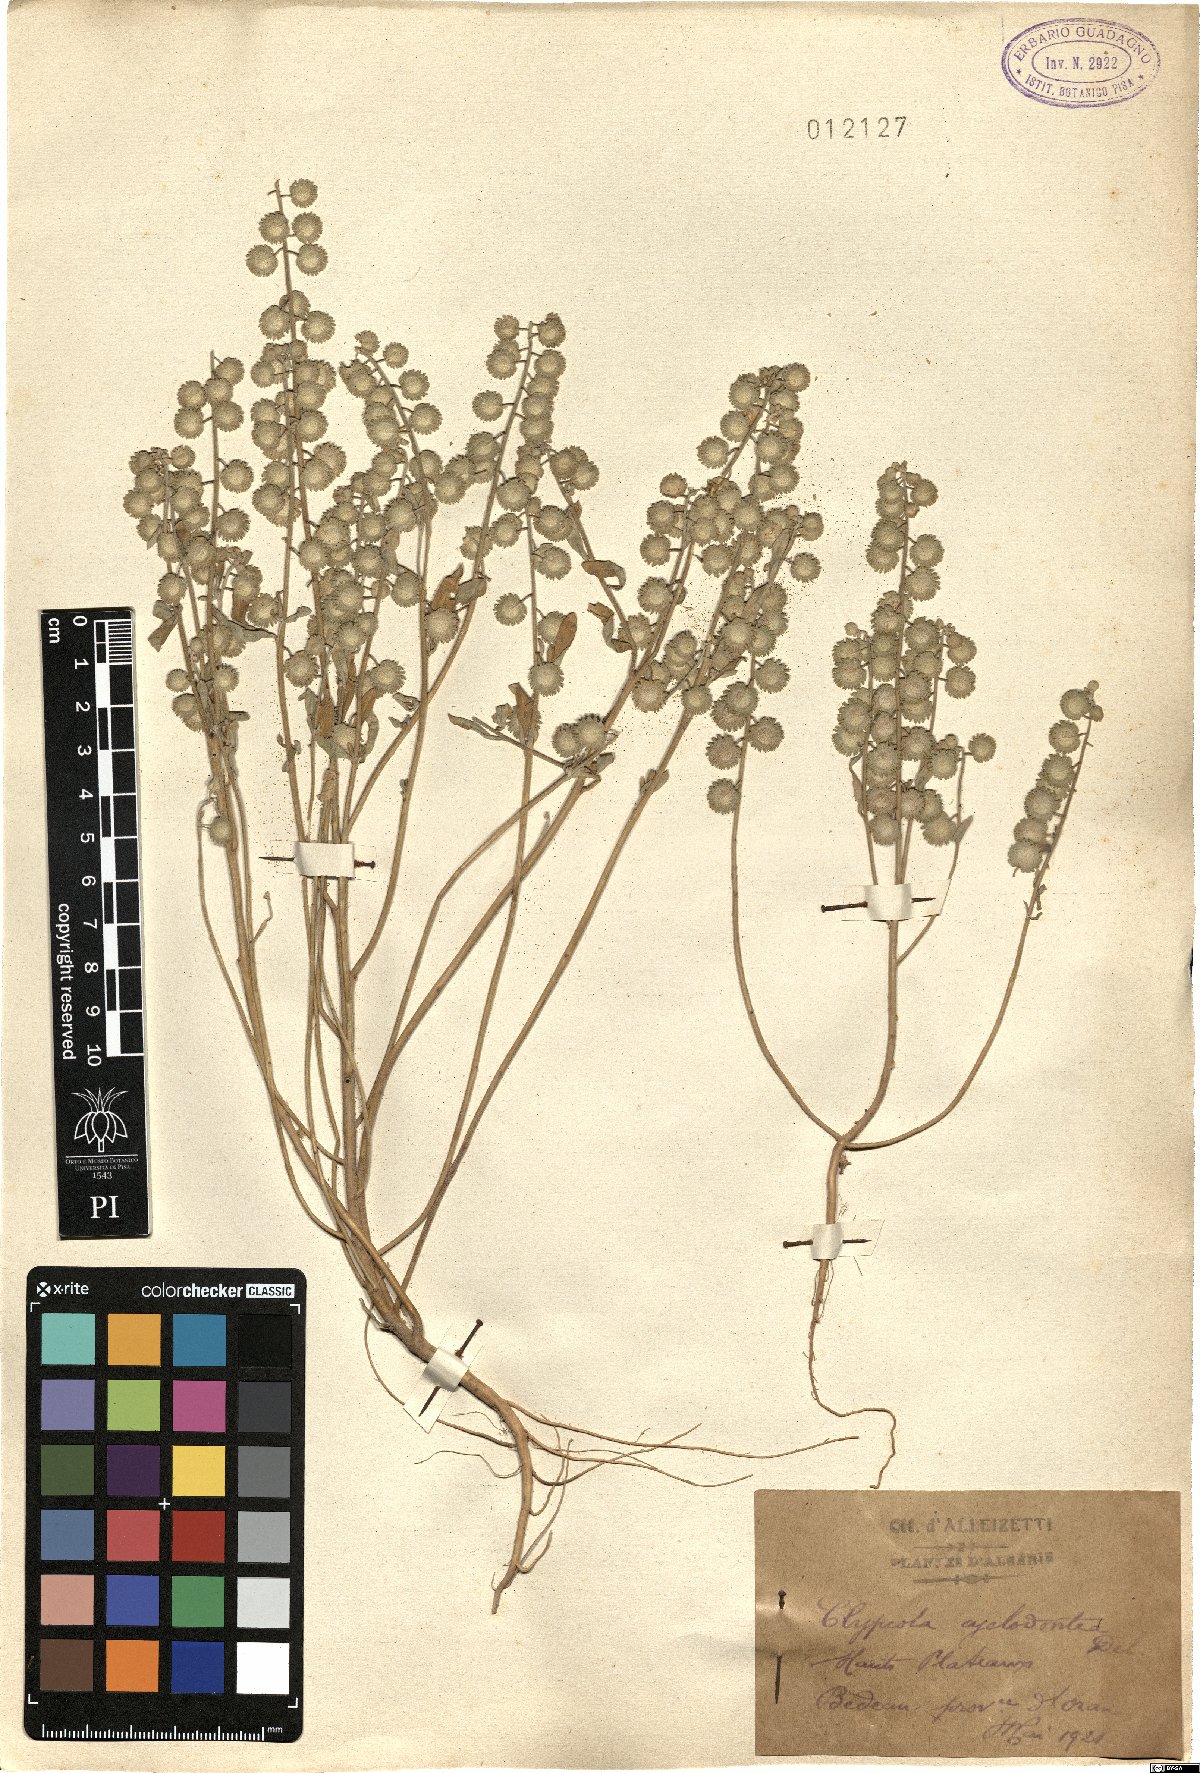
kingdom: Plantae
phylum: Tracheophyta
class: Magnoliopsida
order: Brassicales
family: Brassicaceae
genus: Clypeola
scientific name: Clypeola cyclodontea
